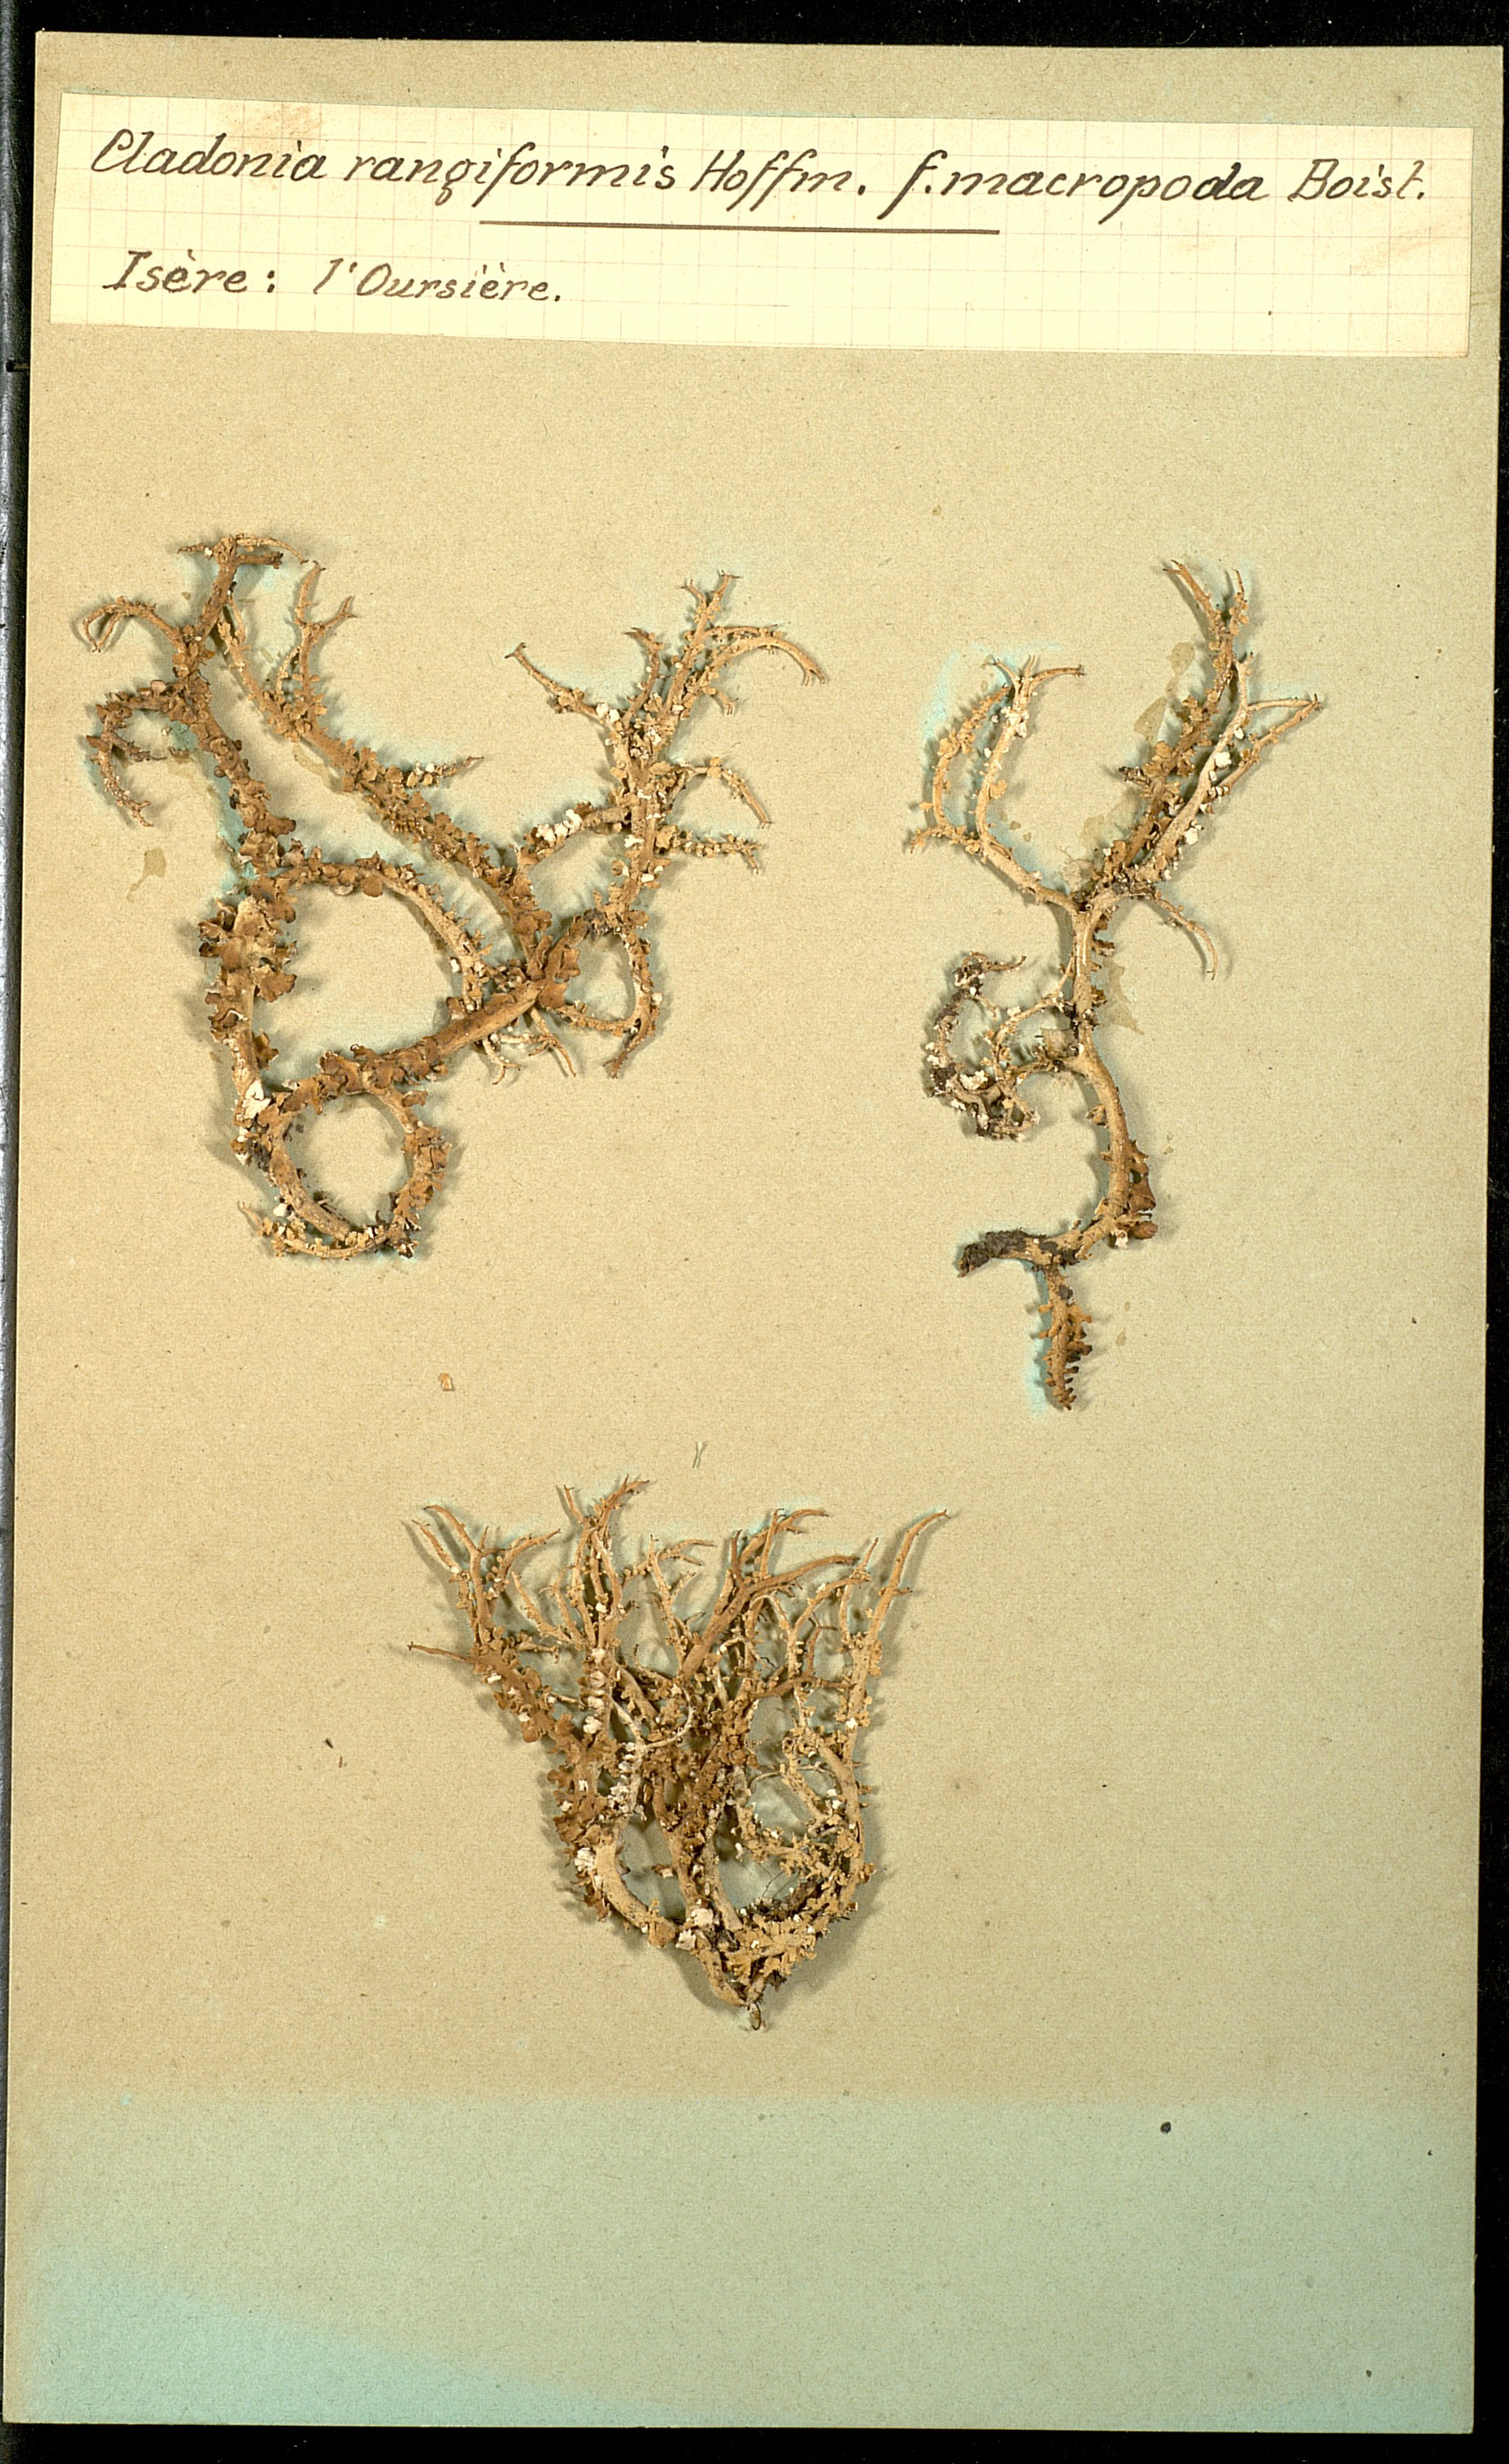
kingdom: Fungi
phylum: Ascomycota
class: Lecanoromycetes
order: Lecanorales
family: Cladoniaceae
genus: Cladonia
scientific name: Cladonia rangiformis
